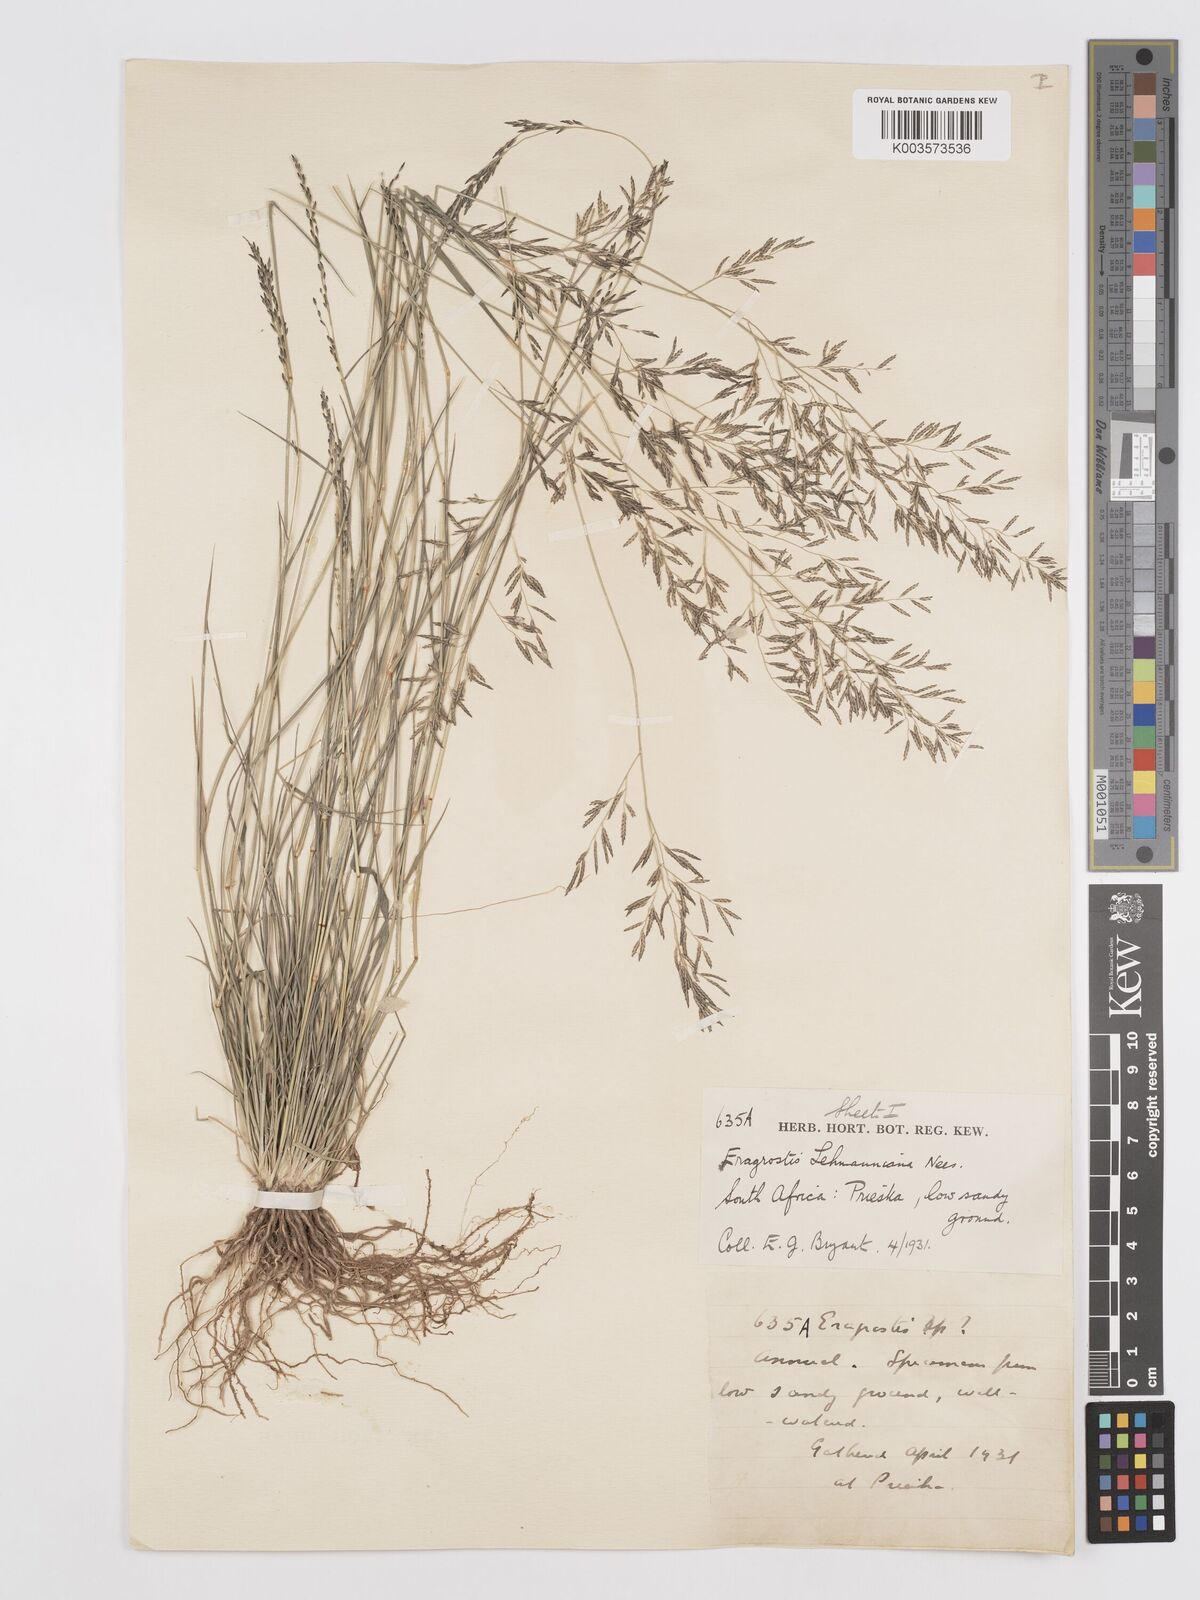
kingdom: Plantae
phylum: Tracheophyta
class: Liliopsida
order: Poales
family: Poaceae
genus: Eragrostis
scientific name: Eragrostis lehmanniana
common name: Lehmann lovegrass
